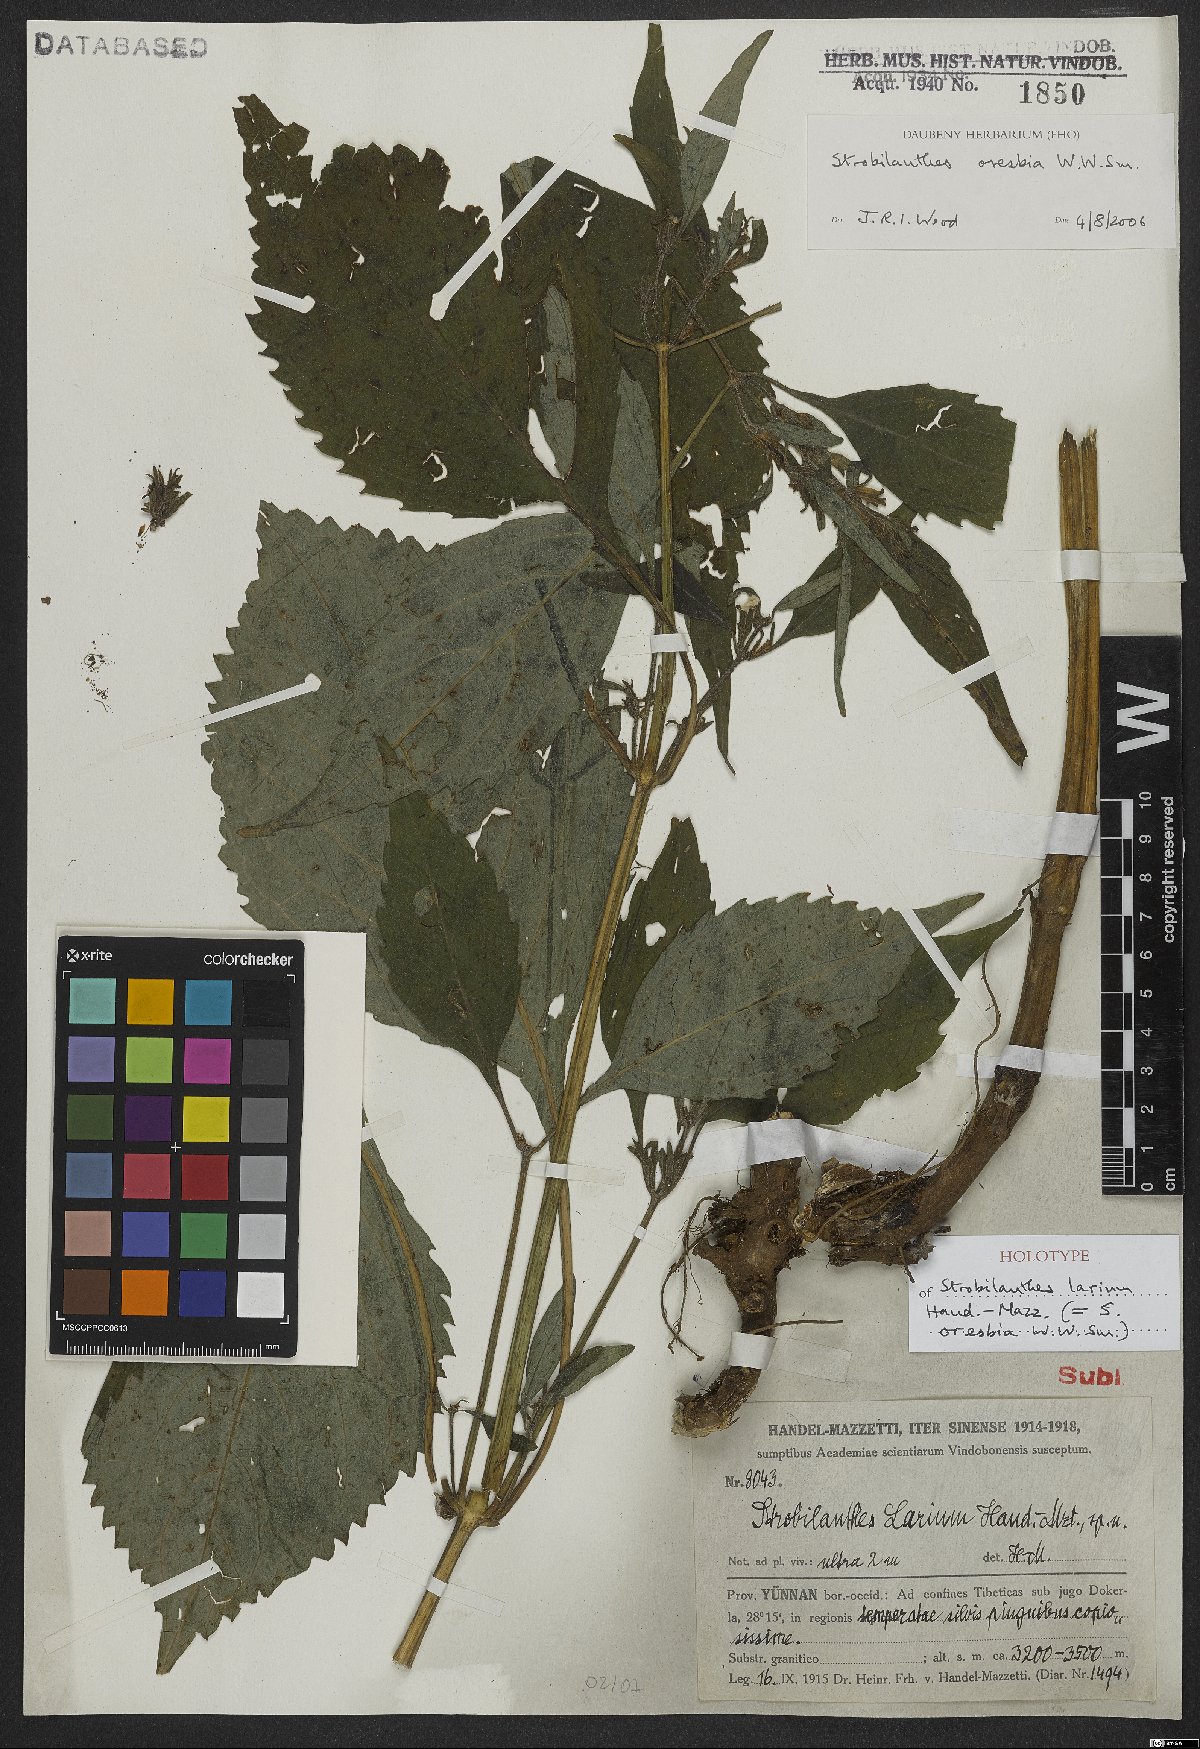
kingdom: Plantae
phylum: Tracheophyta
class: Magnoliopsida
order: Lamiales
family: Acanthaceae
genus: Strobilanthes
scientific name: Strobilanthes oresbia
